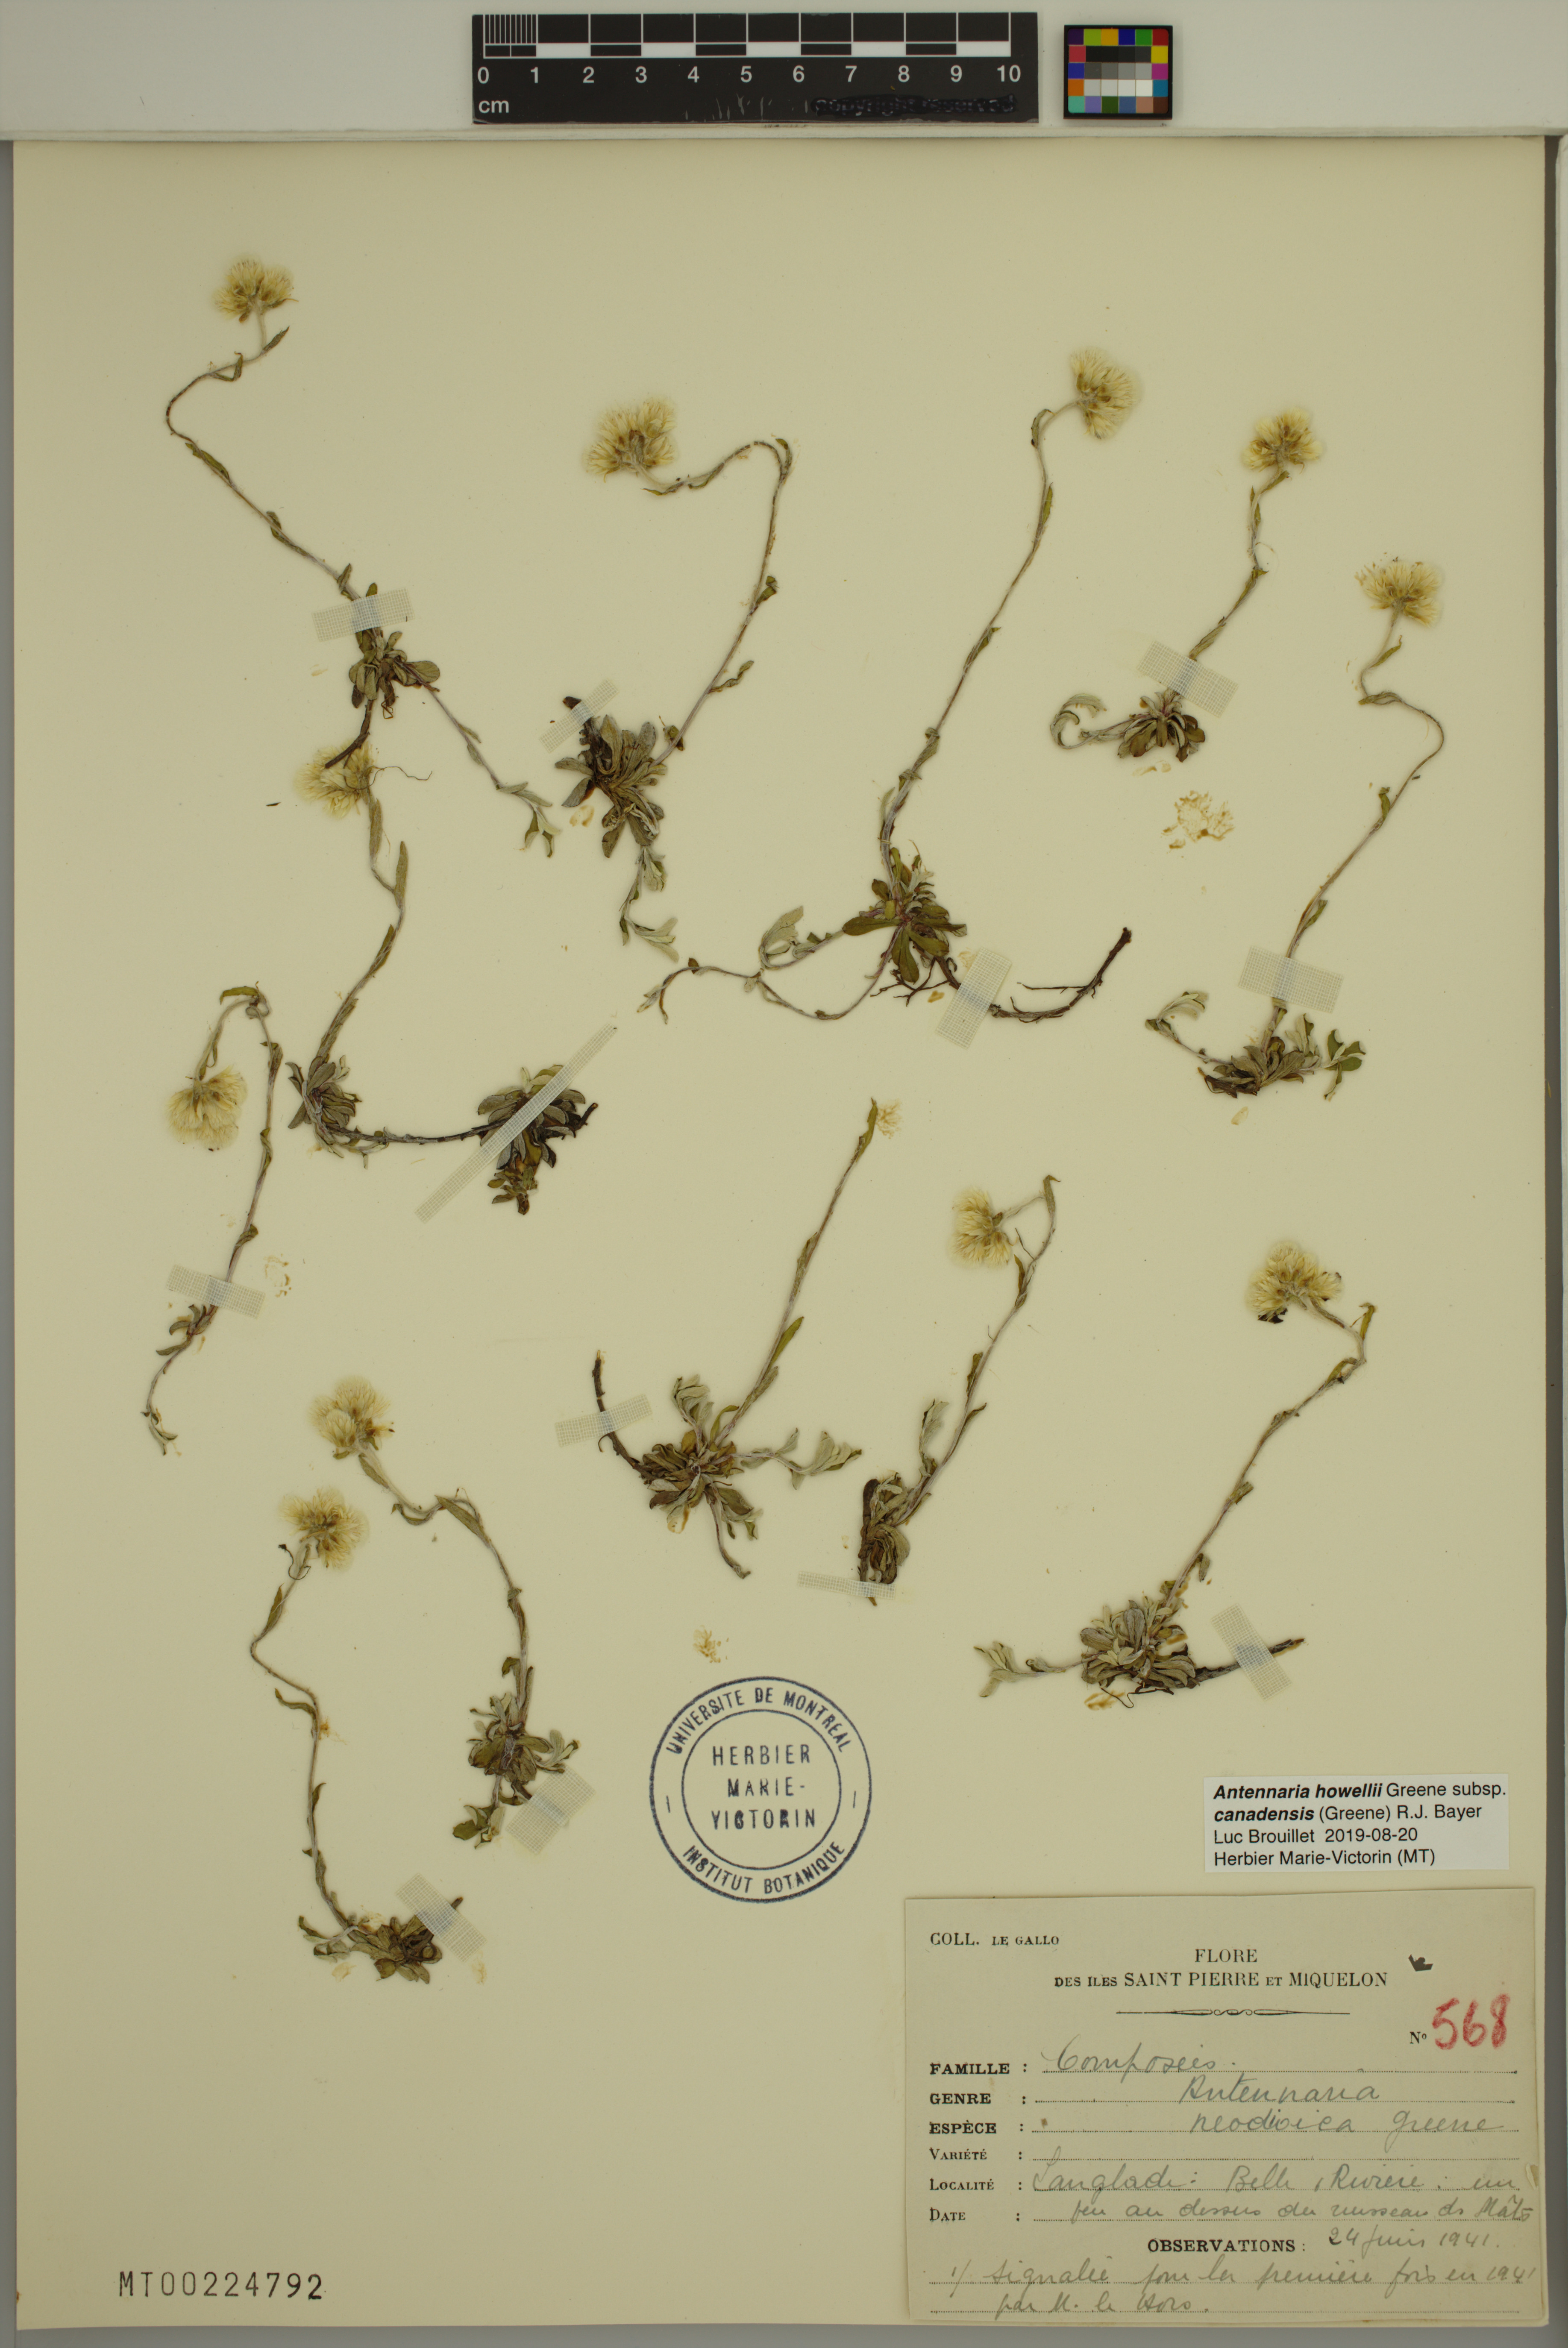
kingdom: Plantae
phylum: Tracheophyta
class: Magnoliopsida
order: Asterales
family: Asteraceae
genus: Antennaria
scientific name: Antennaria howellii
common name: Howell's pussytoes
